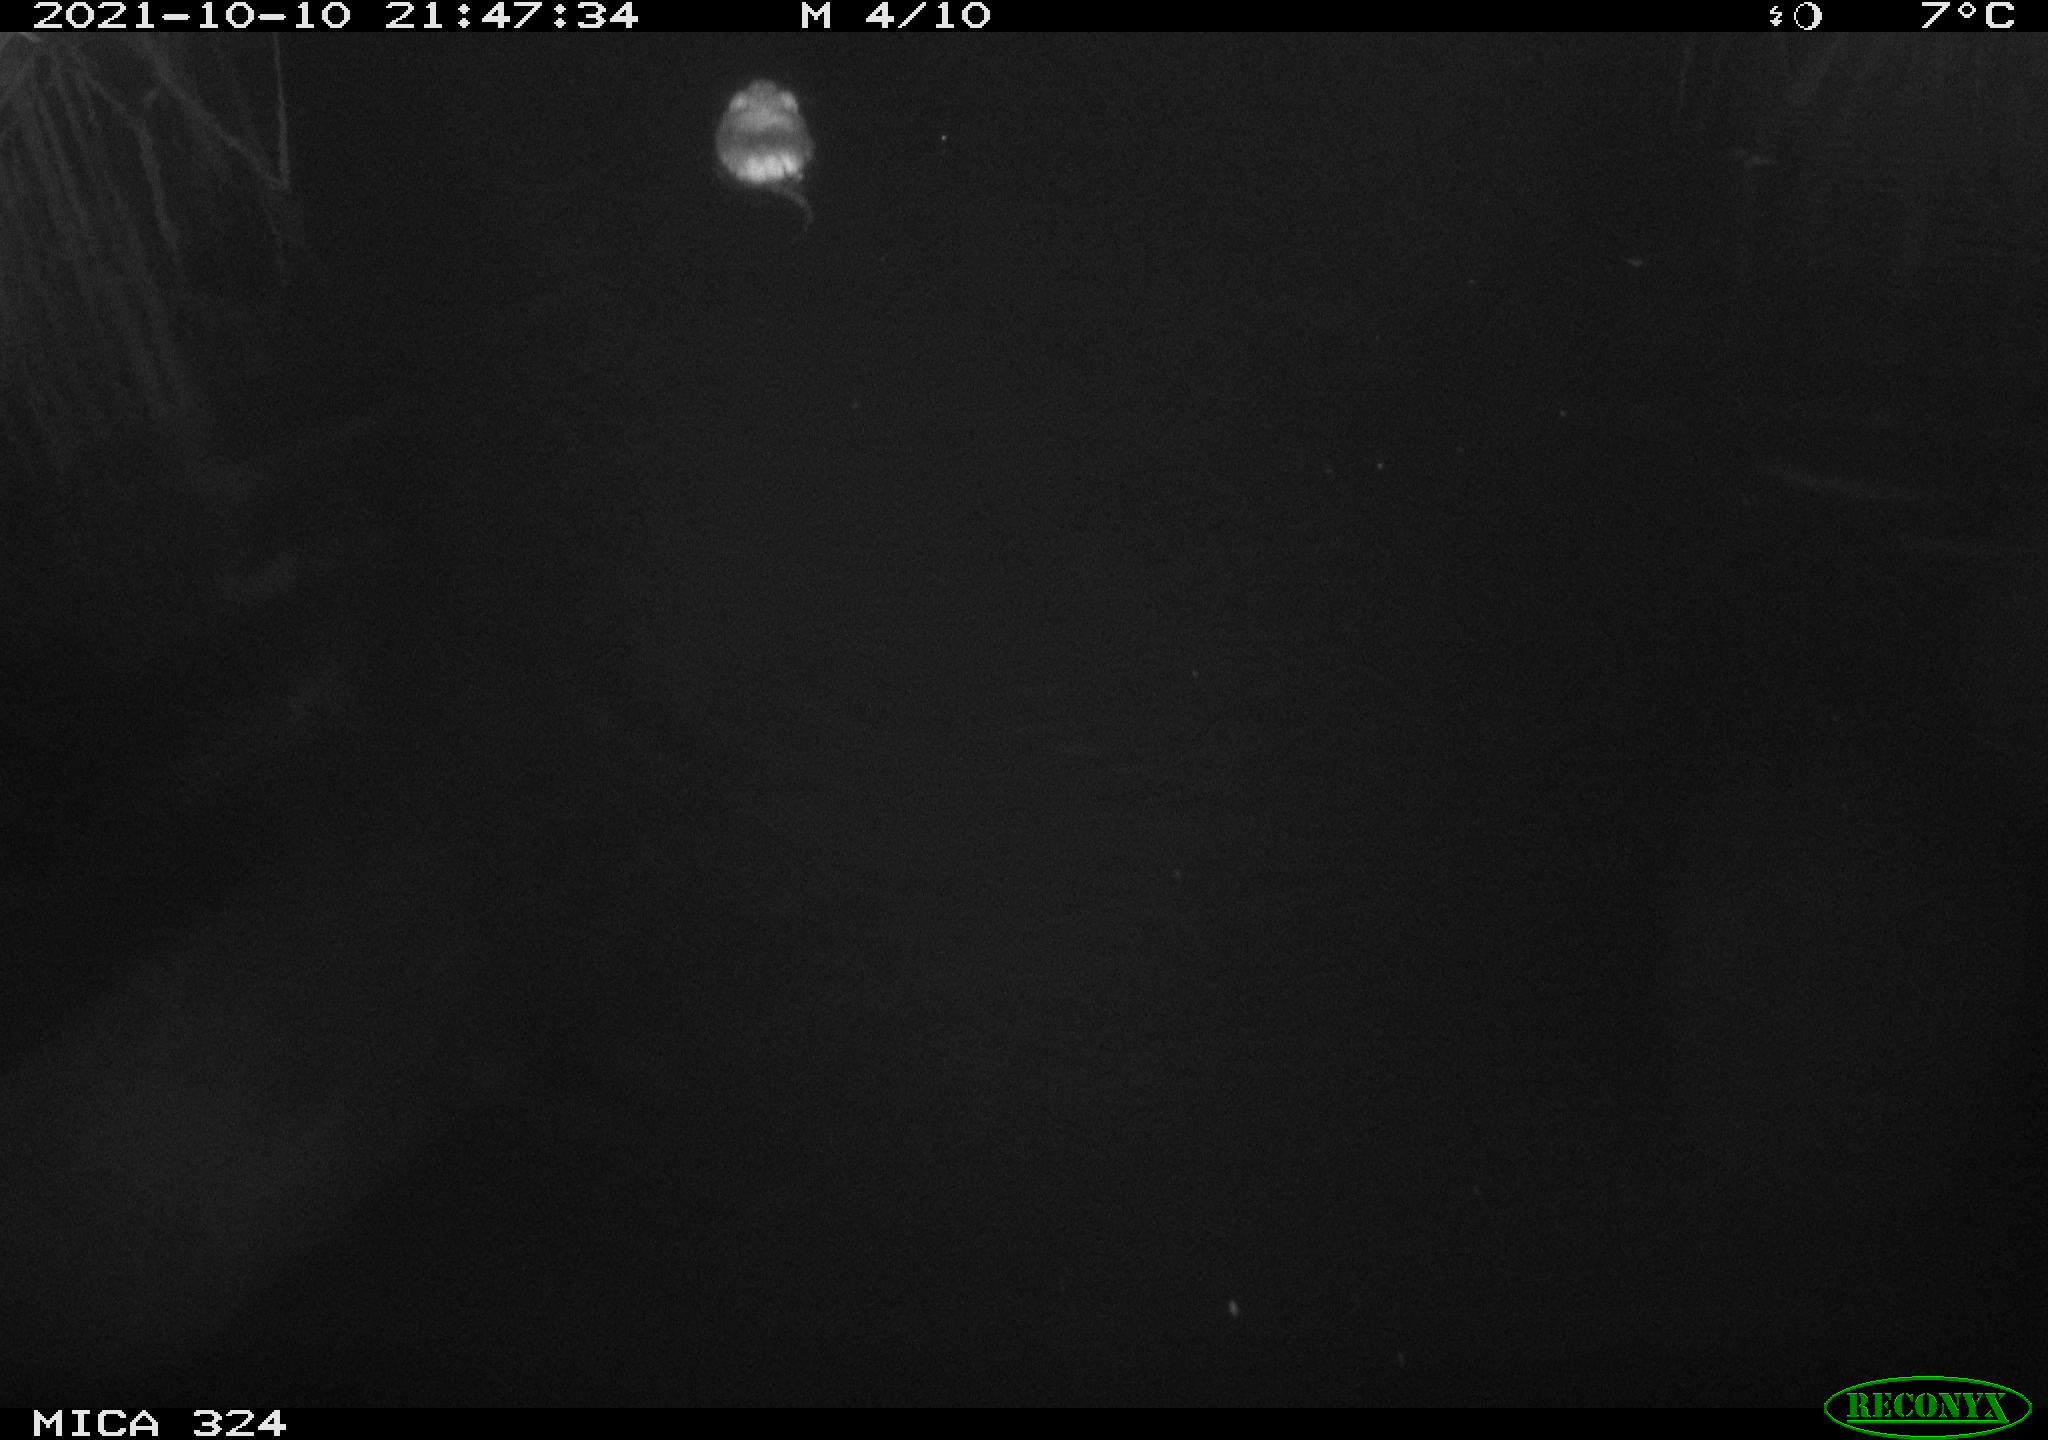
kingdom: Animalia
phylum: Chordata
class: Mammalia
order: Rodentia
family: Cricetidae
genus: Ondatra
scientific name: Ondatra zibethicus
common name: Muskrat
